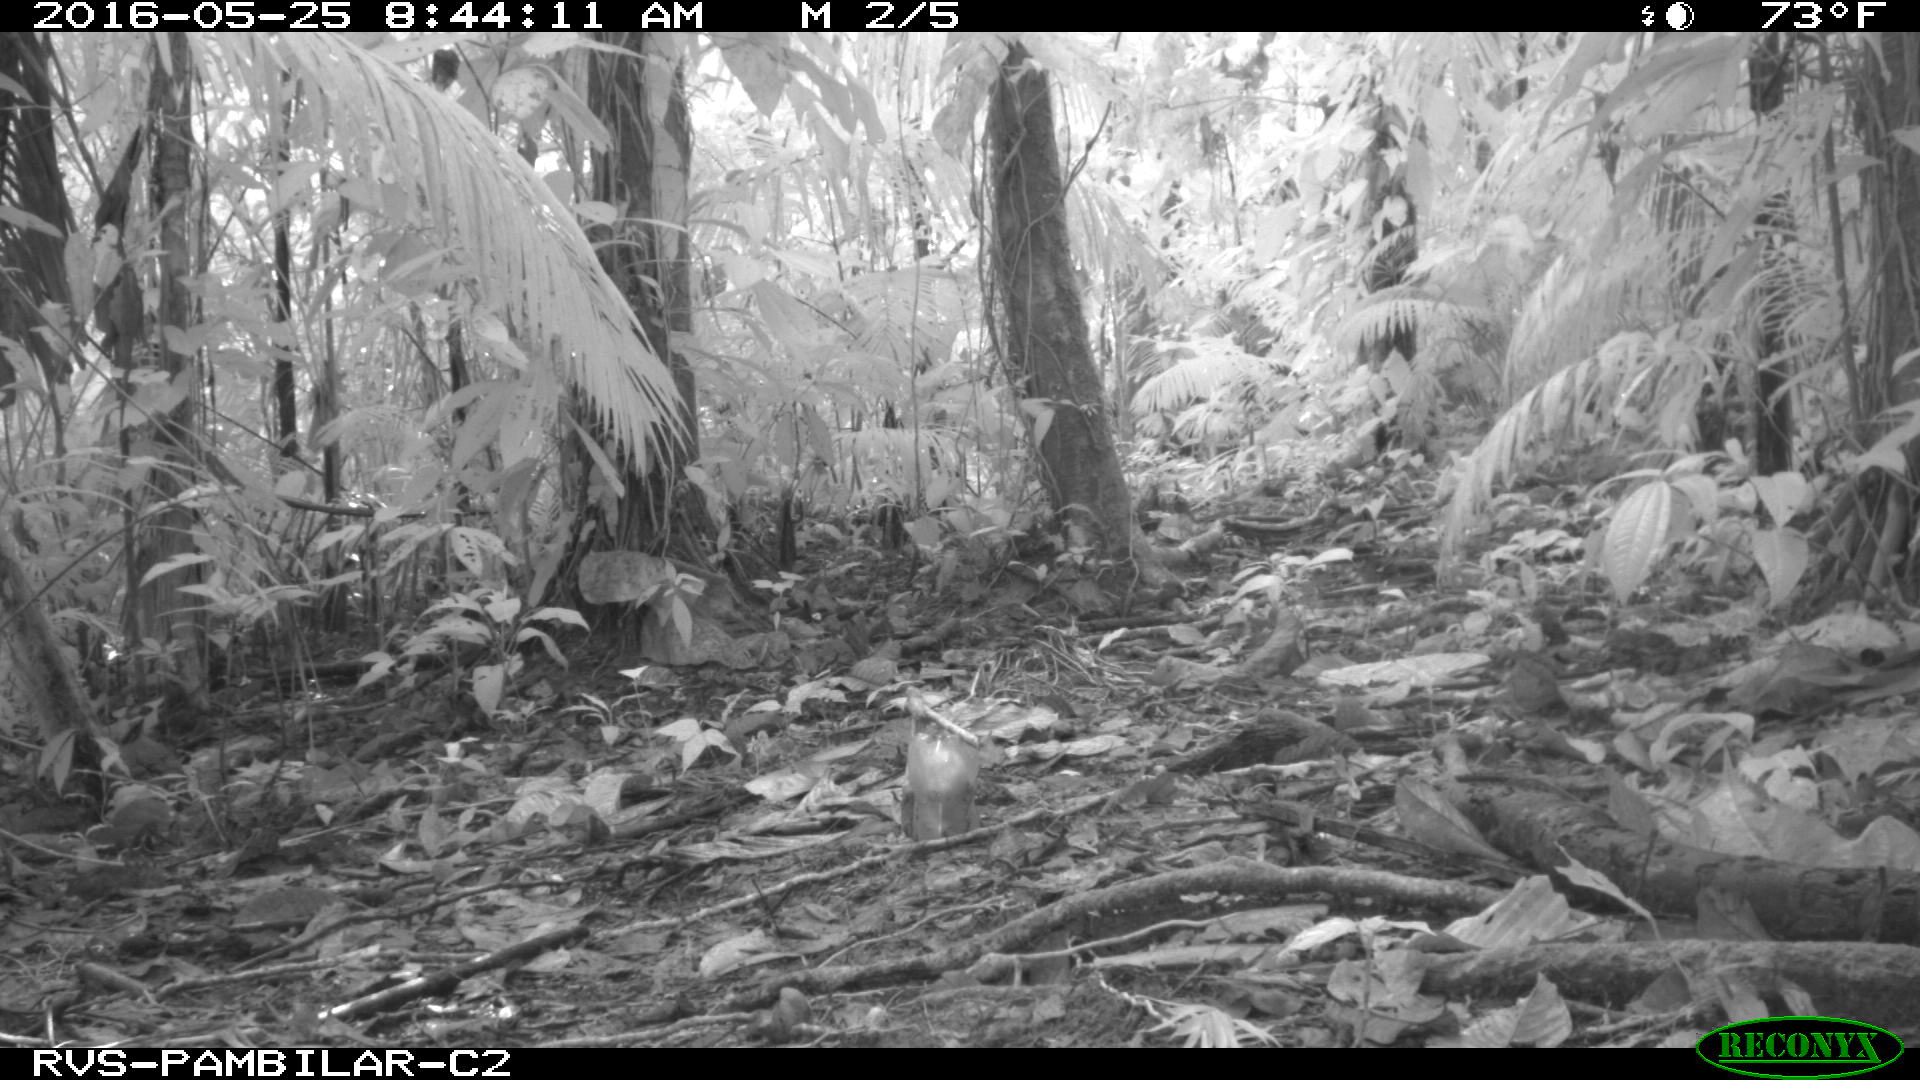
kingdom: Animalia
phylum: Chordata
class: Mammalia
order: Rodentia
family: Dasyproctidae
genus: Dasyprocta
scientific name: Dasyprocta punctata
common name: Central american agouti
